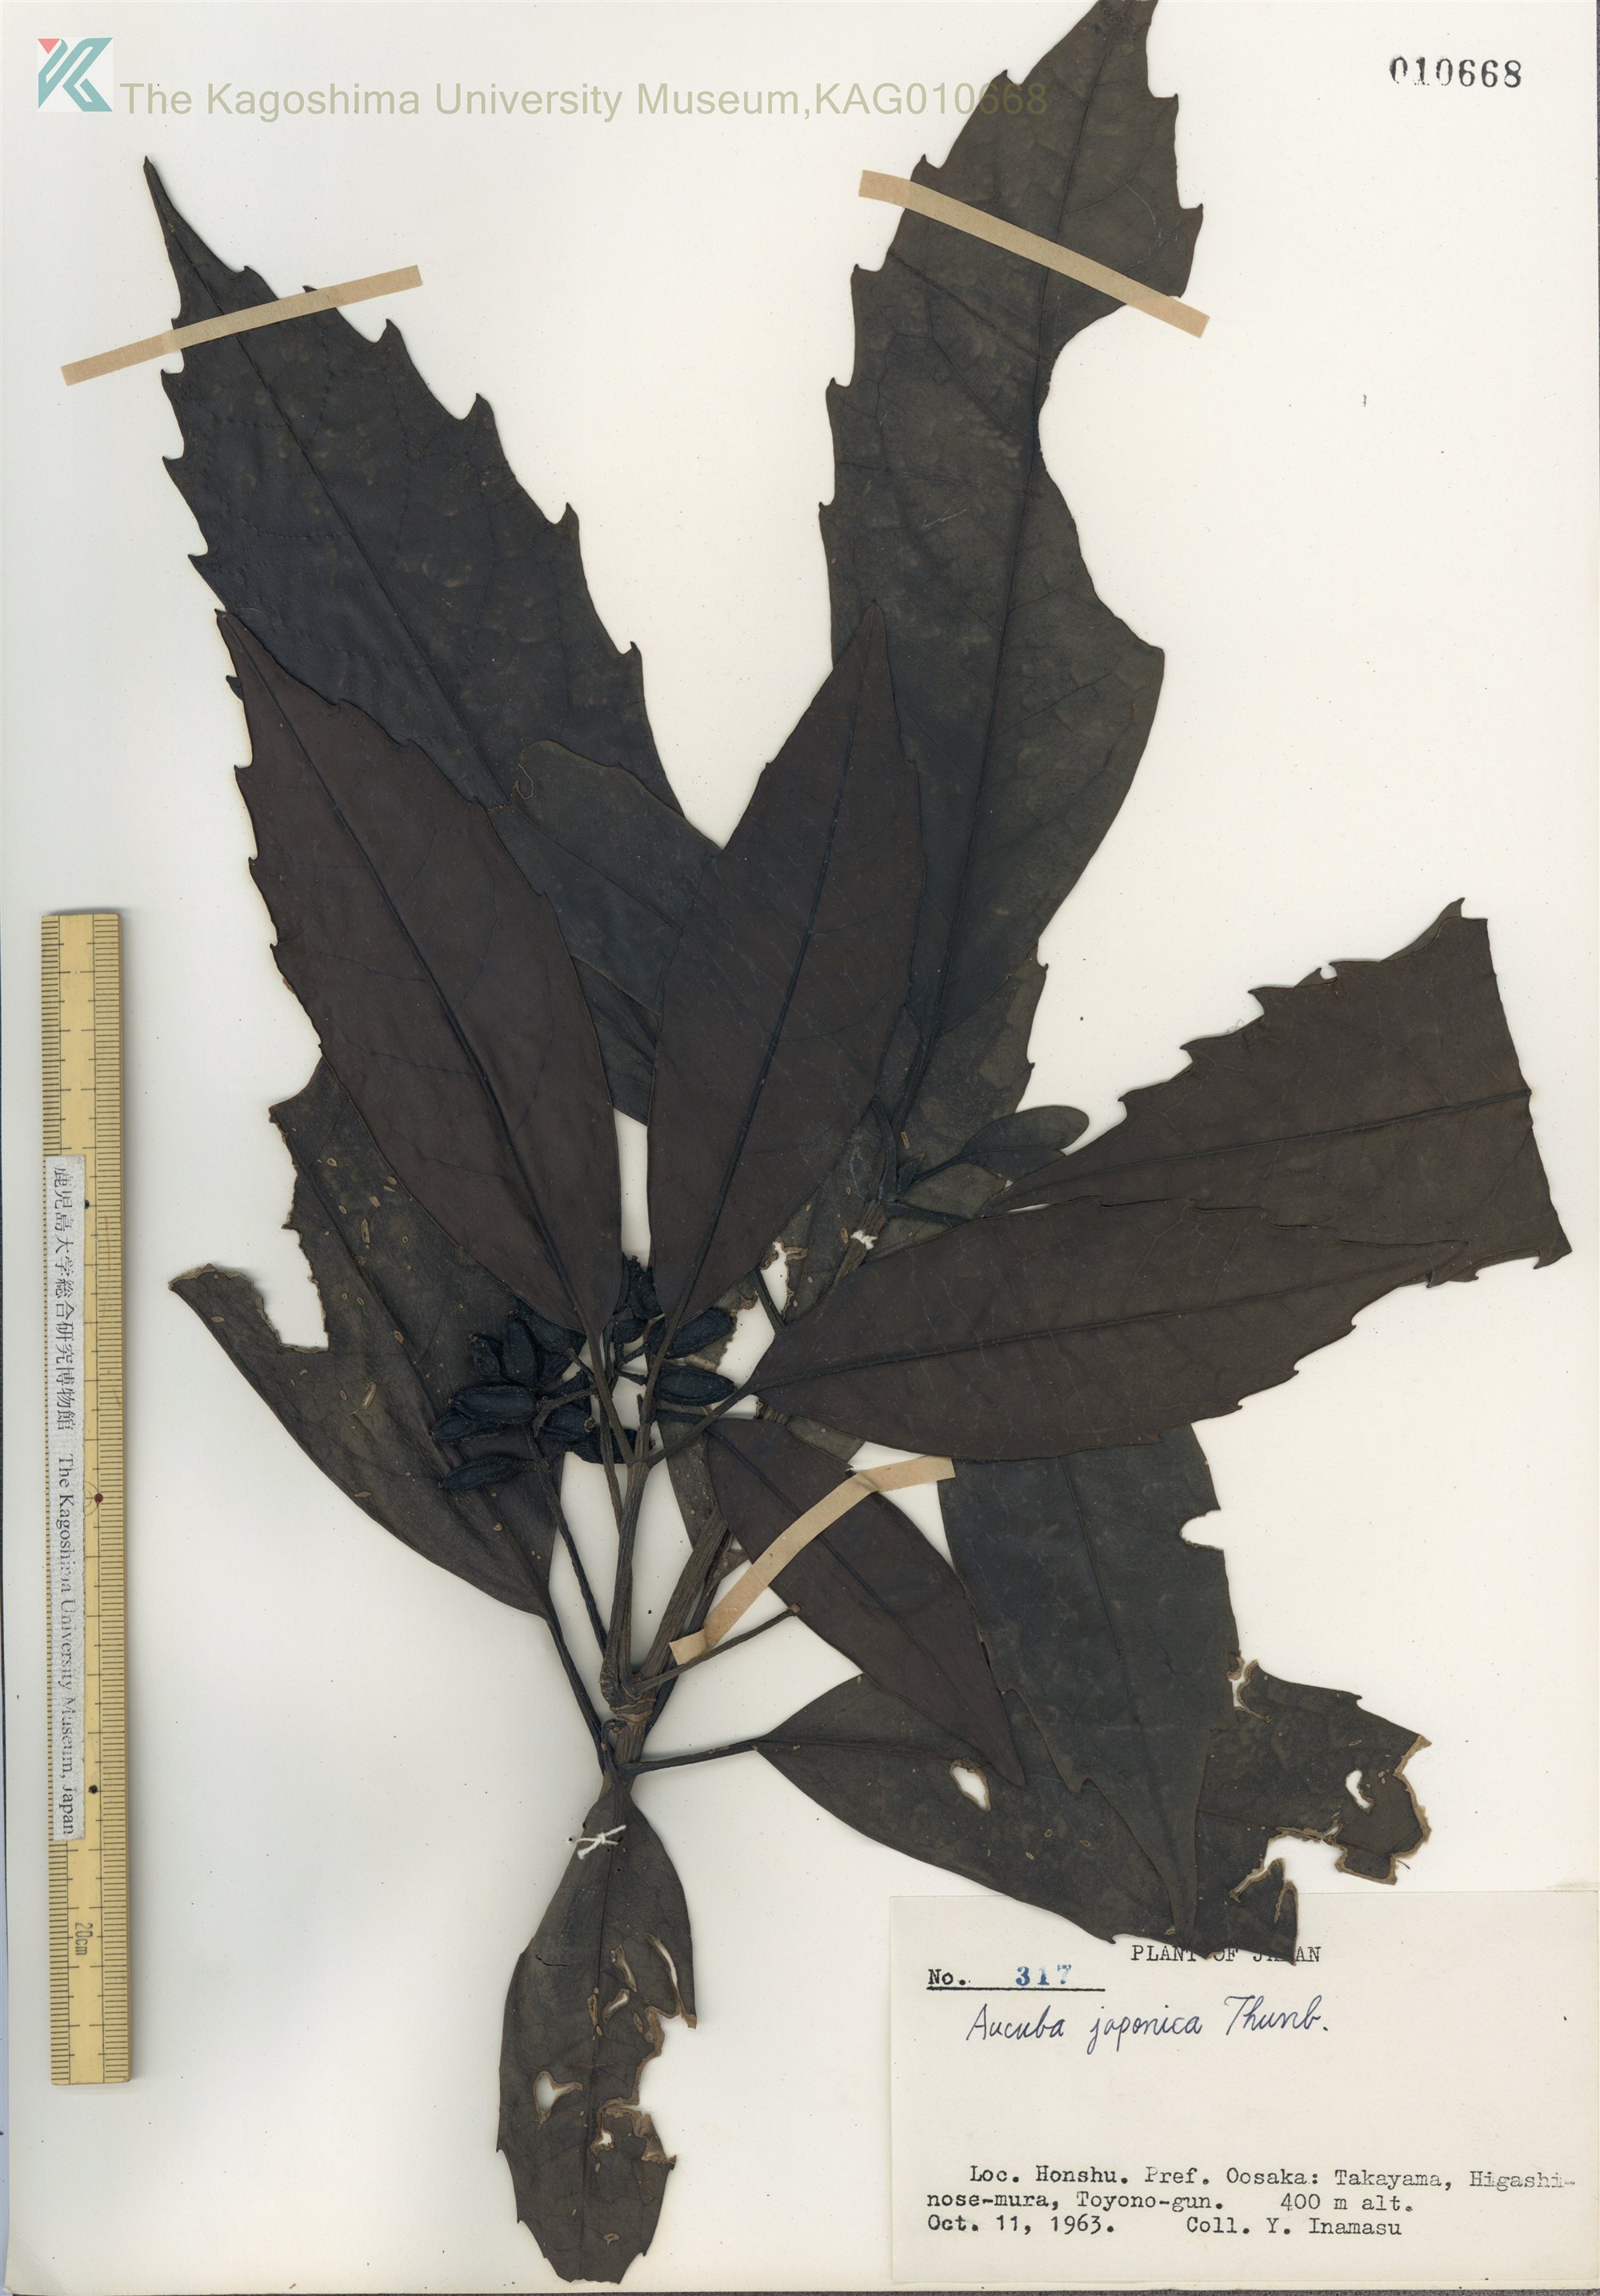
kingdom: Plantae
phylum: Tracheophyta
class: Magnoliopsida
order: Garryales
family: Garryaceae
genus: Aucuba
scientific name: Aucuba japonica
